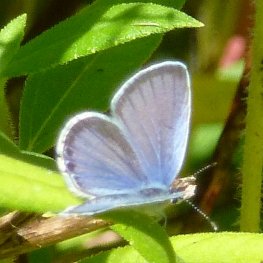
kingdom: Animalia
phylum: Arthropoda
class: Insecta
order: Lepidoptera
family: Lycaenidae
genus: Elkalyce
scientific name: Elkalyce comyntas
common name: Eastern Tailed-Blue
